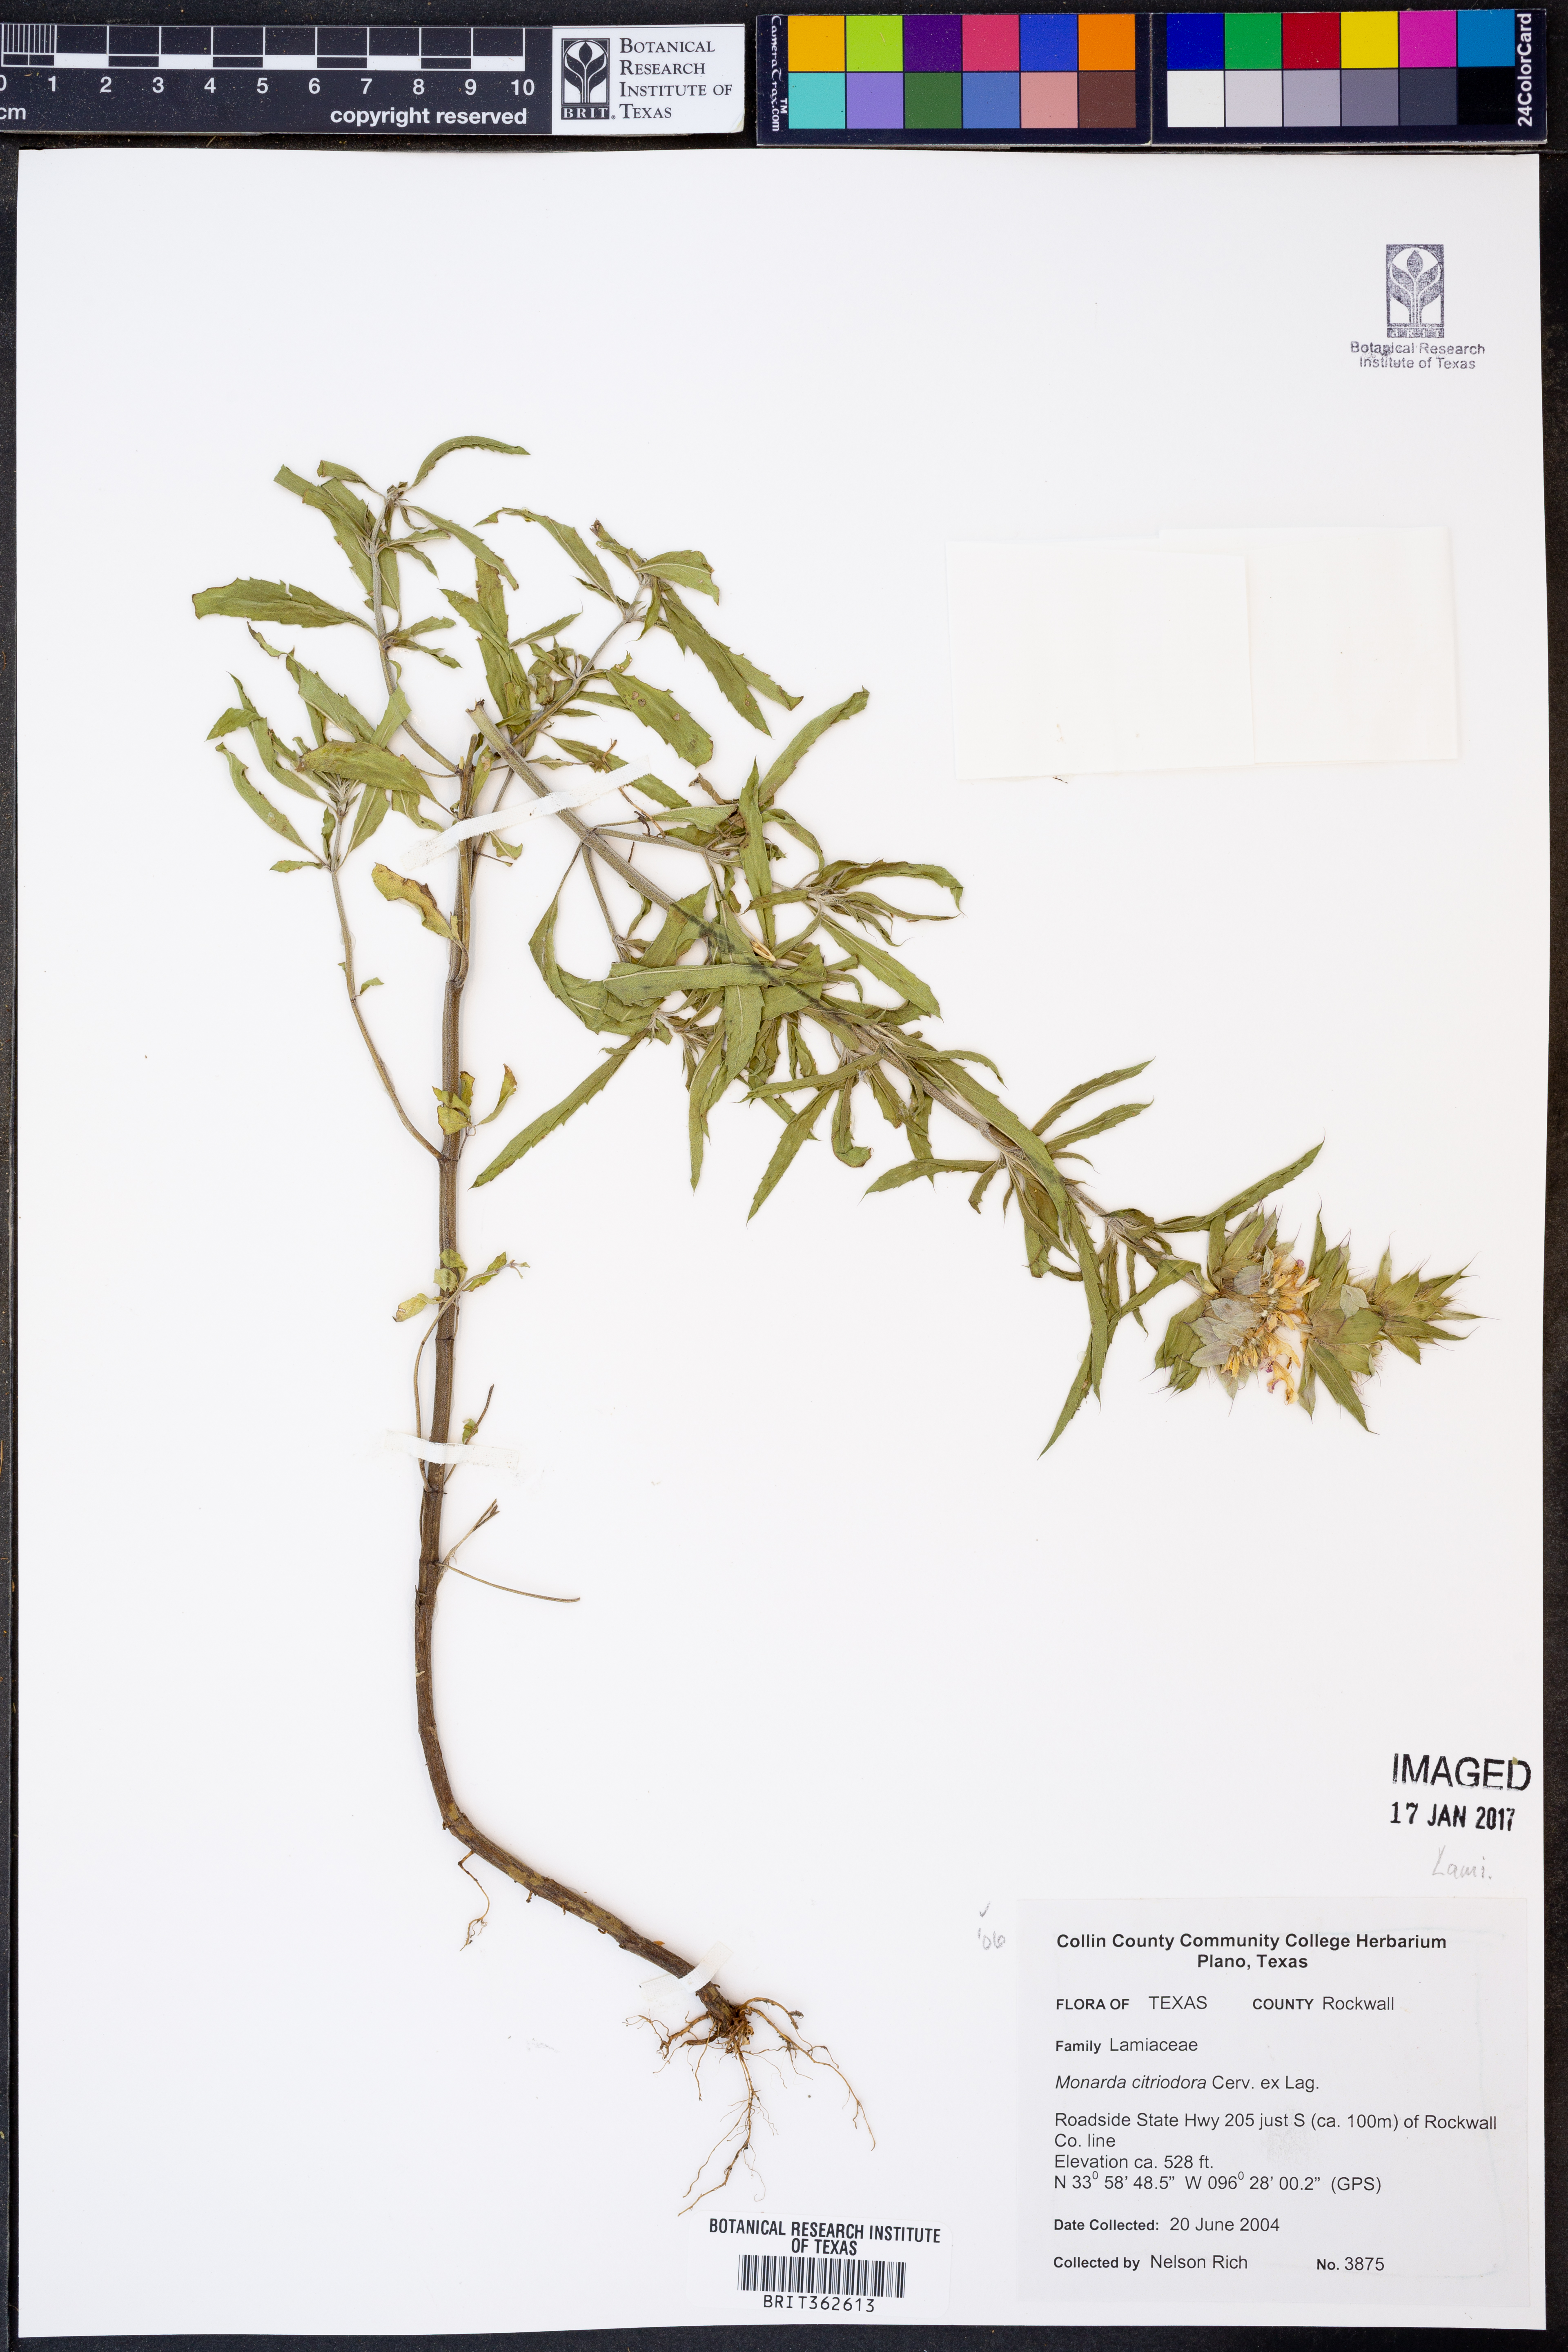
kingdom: Plantae
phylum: Tracheophyta
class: Magnoliopsida
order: Lamiales
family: Lamiaceae
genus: Monarda
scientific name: Monarda citriodora
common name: Lemon beebalm
